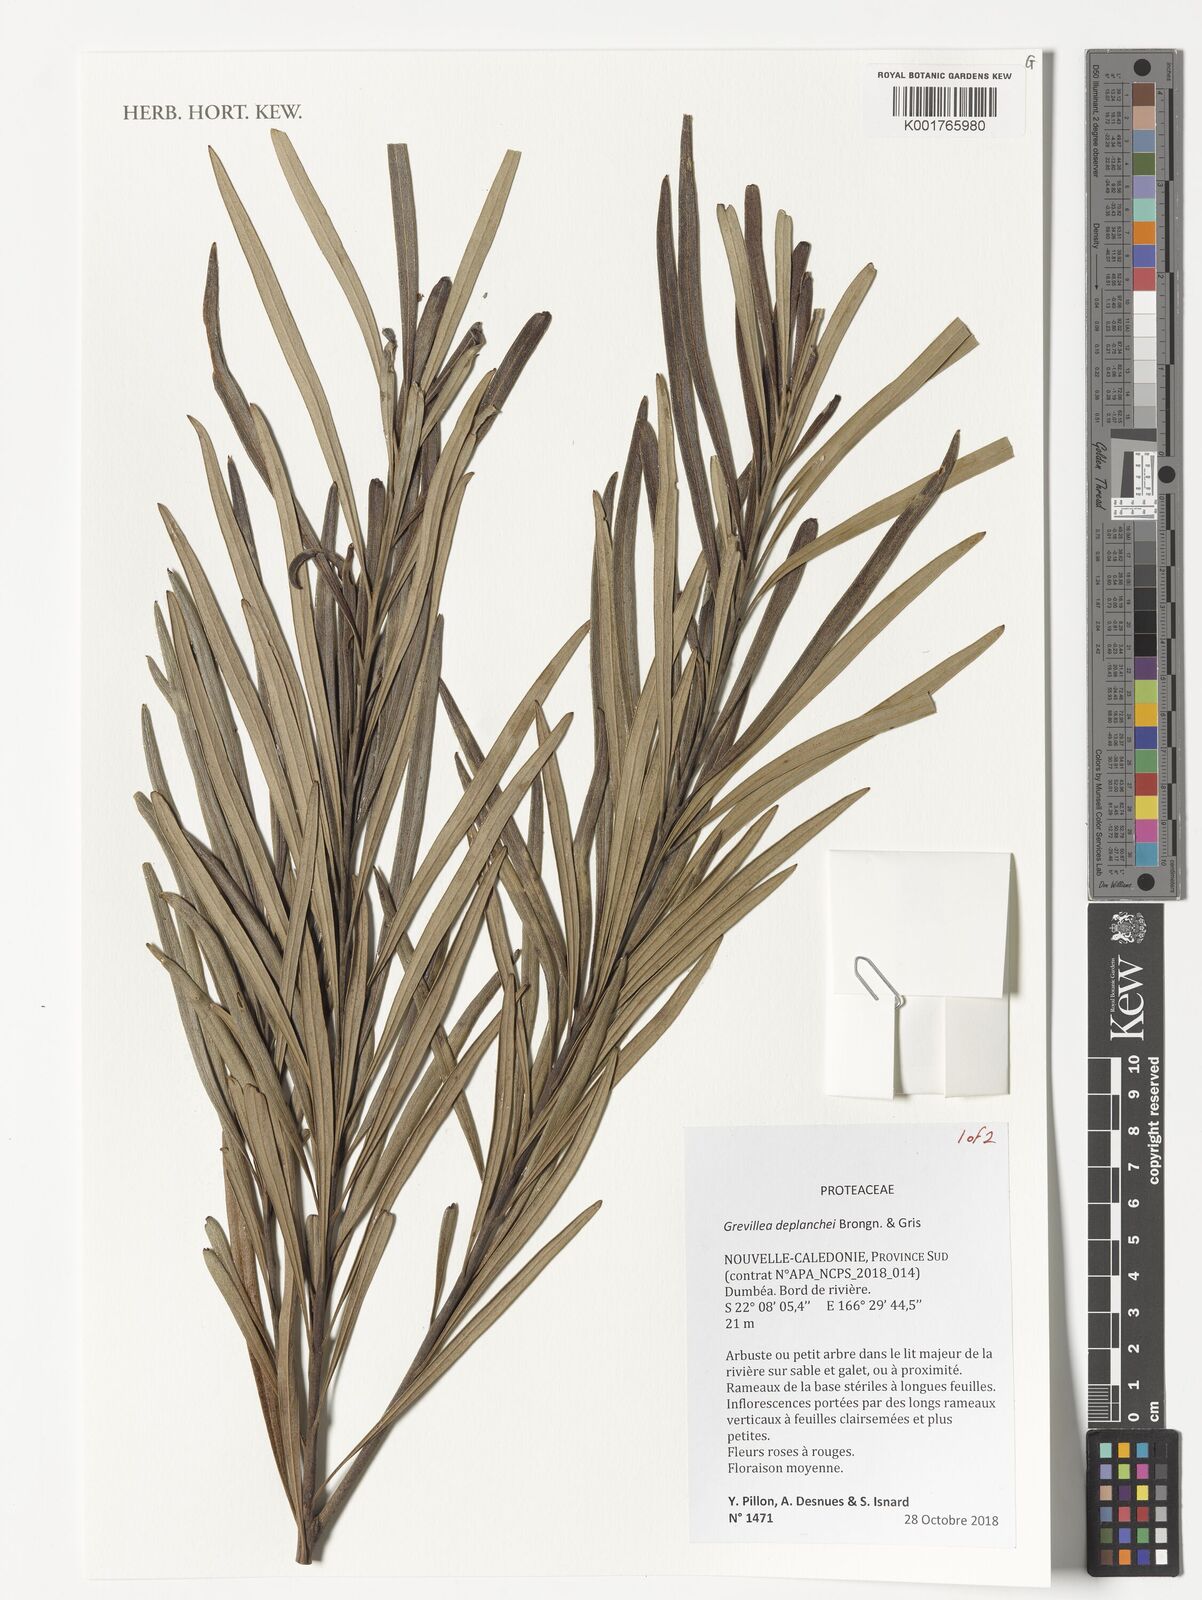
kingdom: Plantae
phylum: Tracheophyta
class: Magnoliopsida
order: Proteales
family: Proteaceae
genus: Grevillea
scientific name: Grevillea gillivrayi
